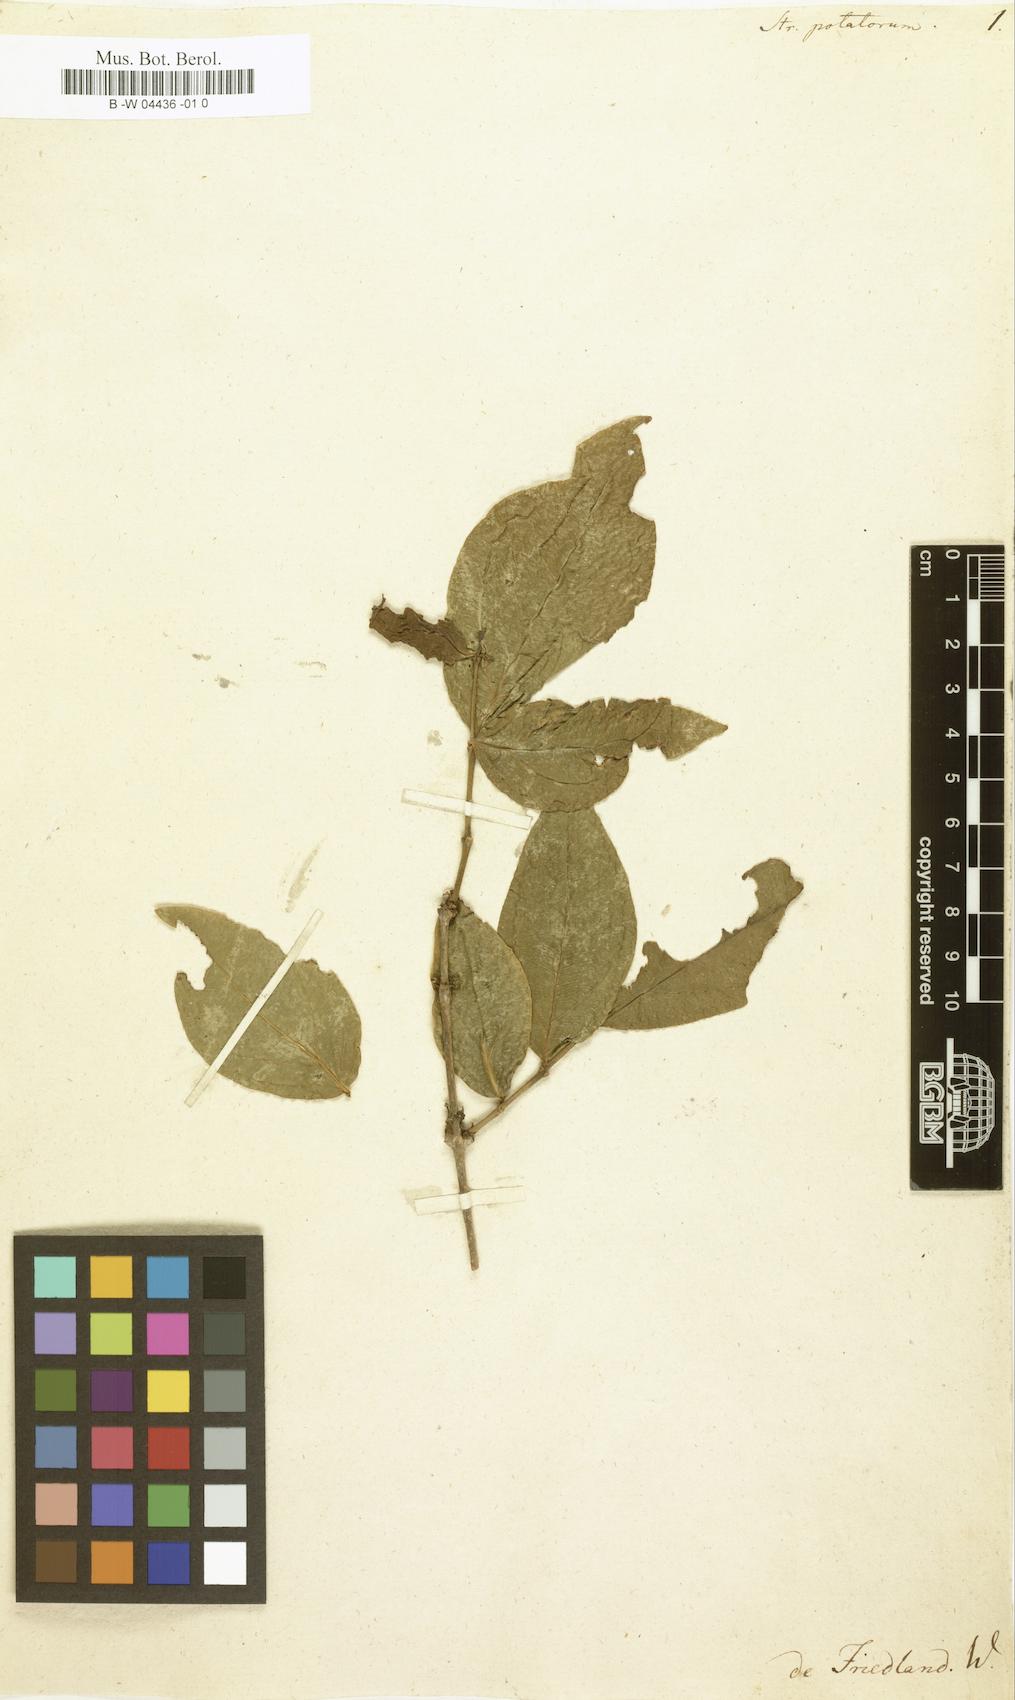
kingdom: Plantae
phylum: Tracheophyta
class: Magnoliopsida
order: Gentianales
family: Loganiaceae
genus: Strychnos
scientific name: Strychnos potatorum
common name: Clearing-nut-tree
